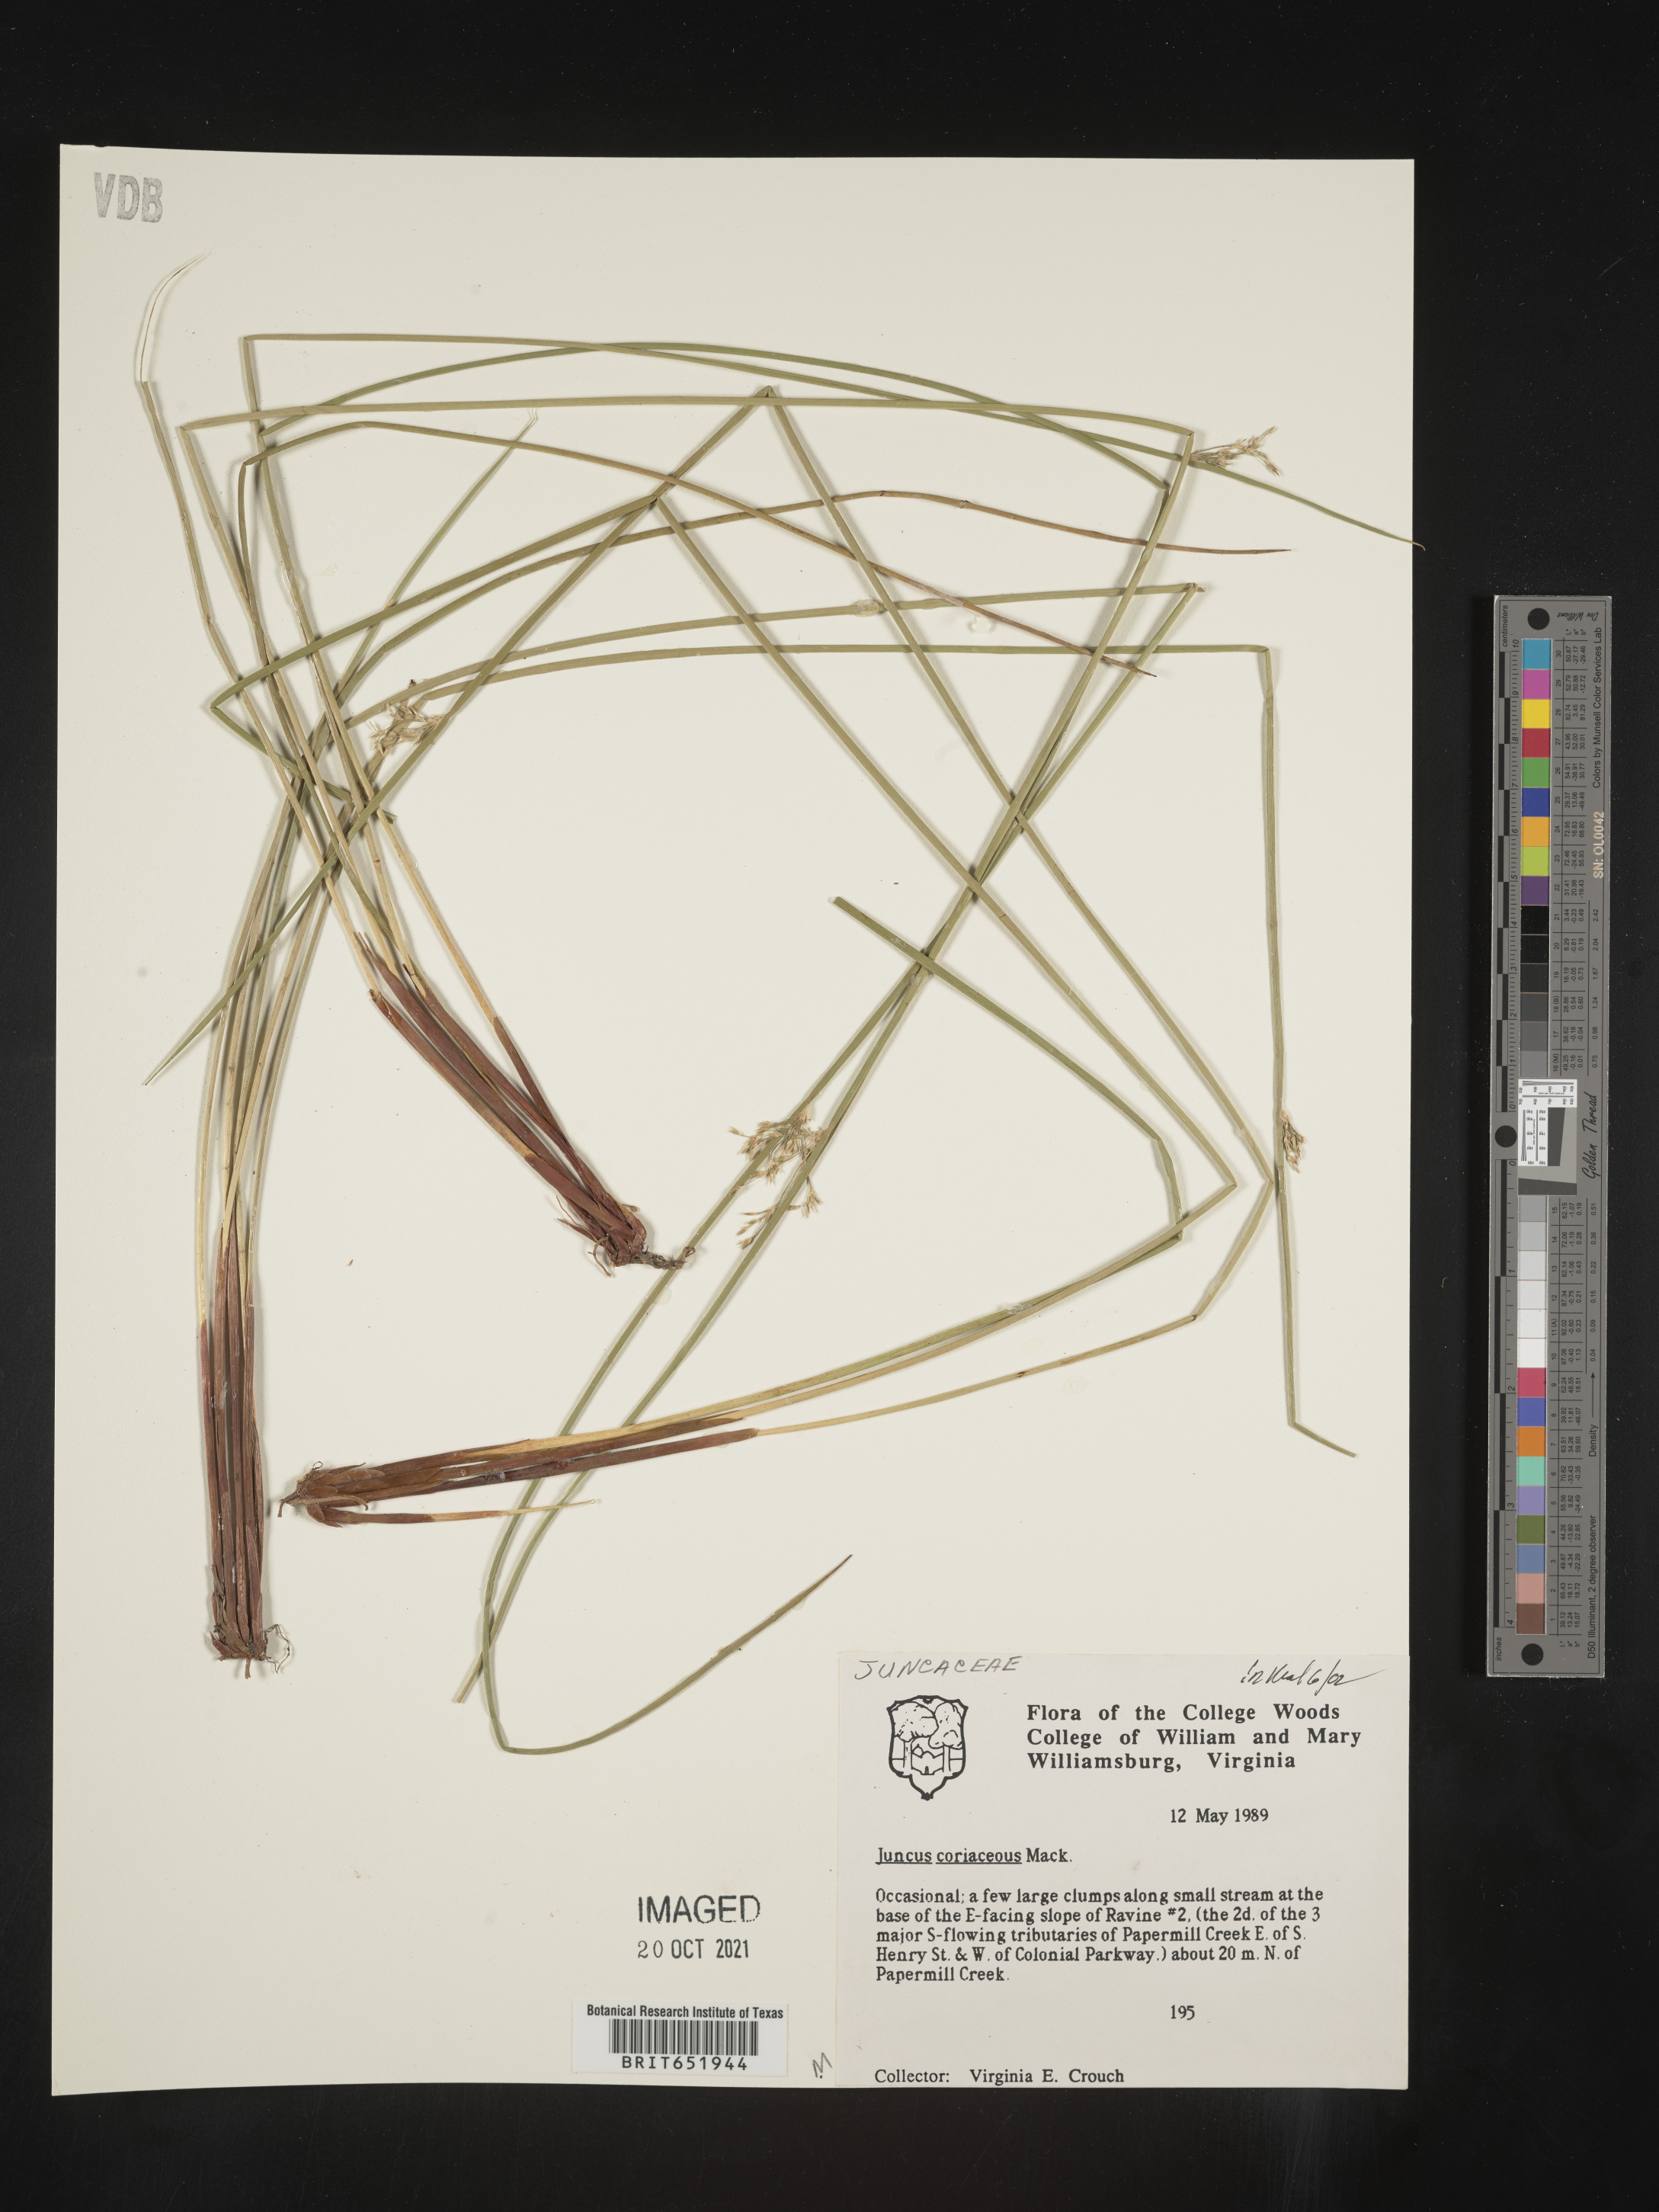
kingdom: Plantae
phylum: Tracheophyta
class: Liliopsida
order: Poales
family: Juncaceae
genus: Juncus
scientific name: Juncus coriaceus
